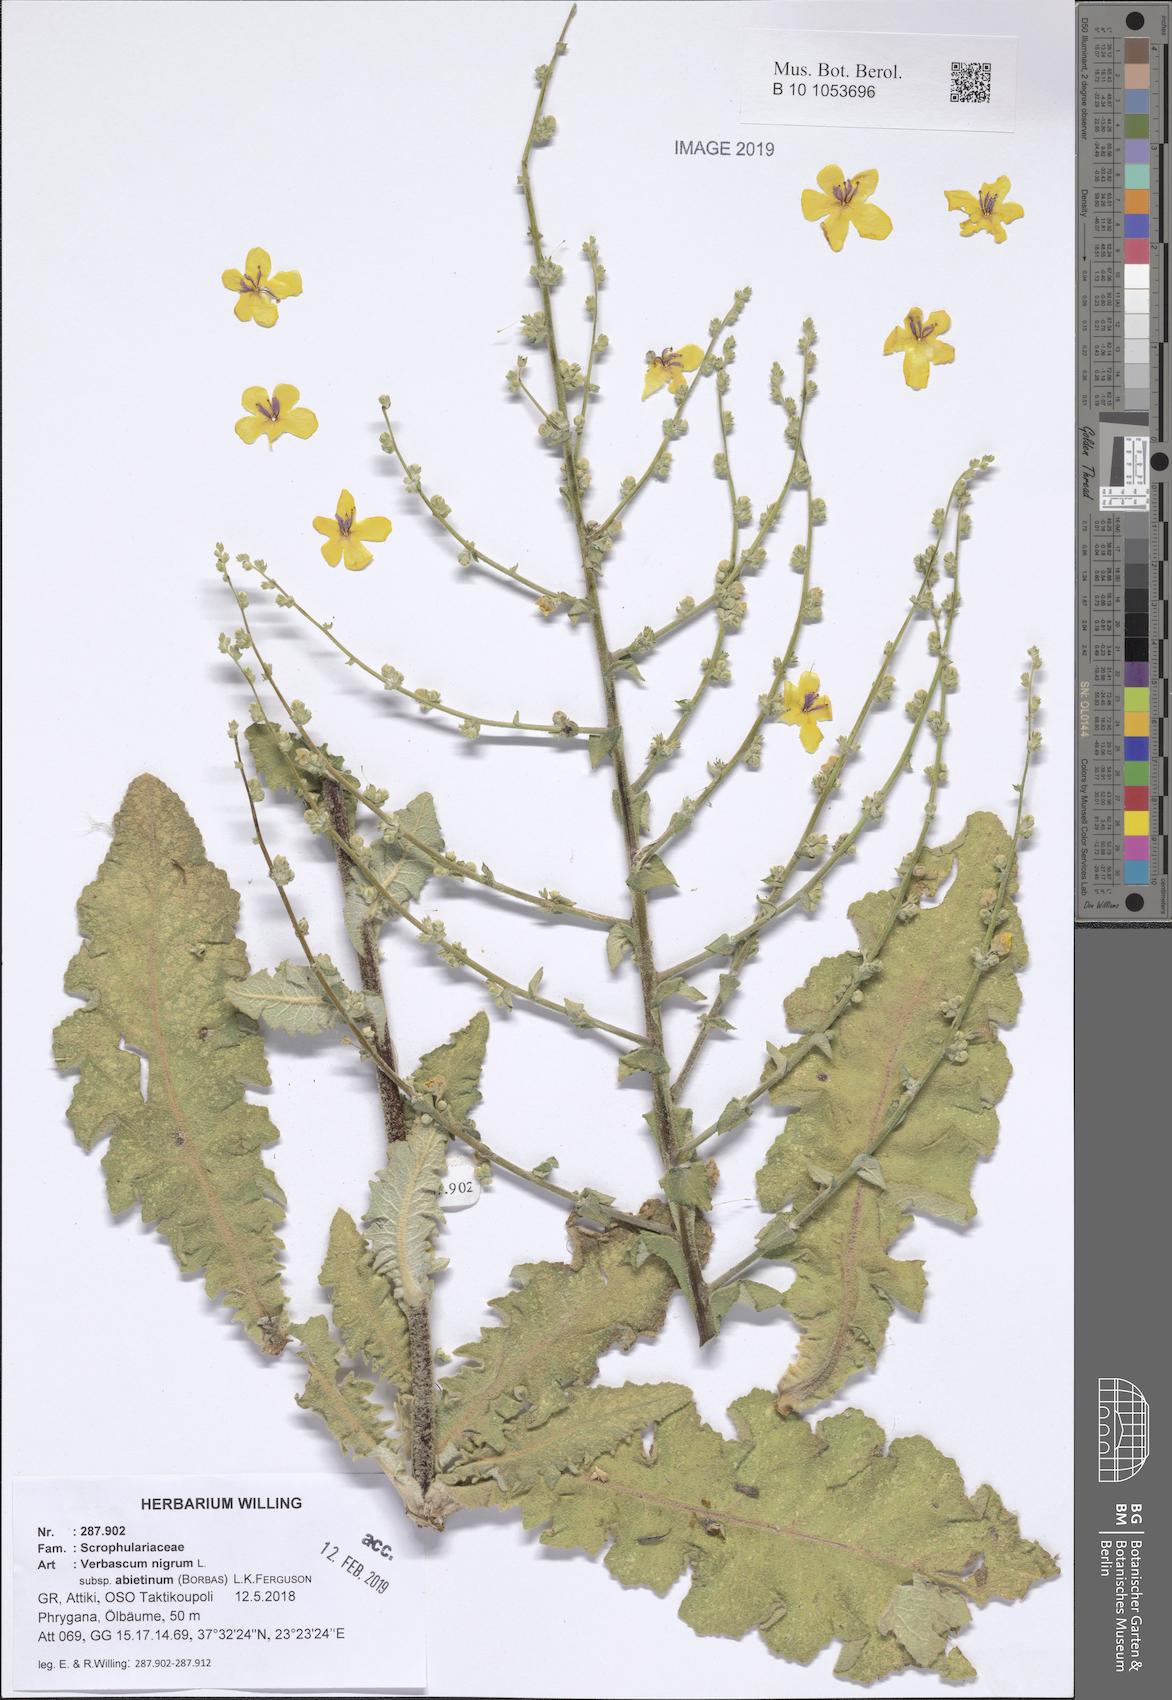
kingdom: Plantae
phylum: Tracheophyta
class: Magnoliopsida
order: Lamiales
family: Scrophulariaceae
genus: Verbascum
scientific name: Verbascum nigrum
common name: Dark mullein
